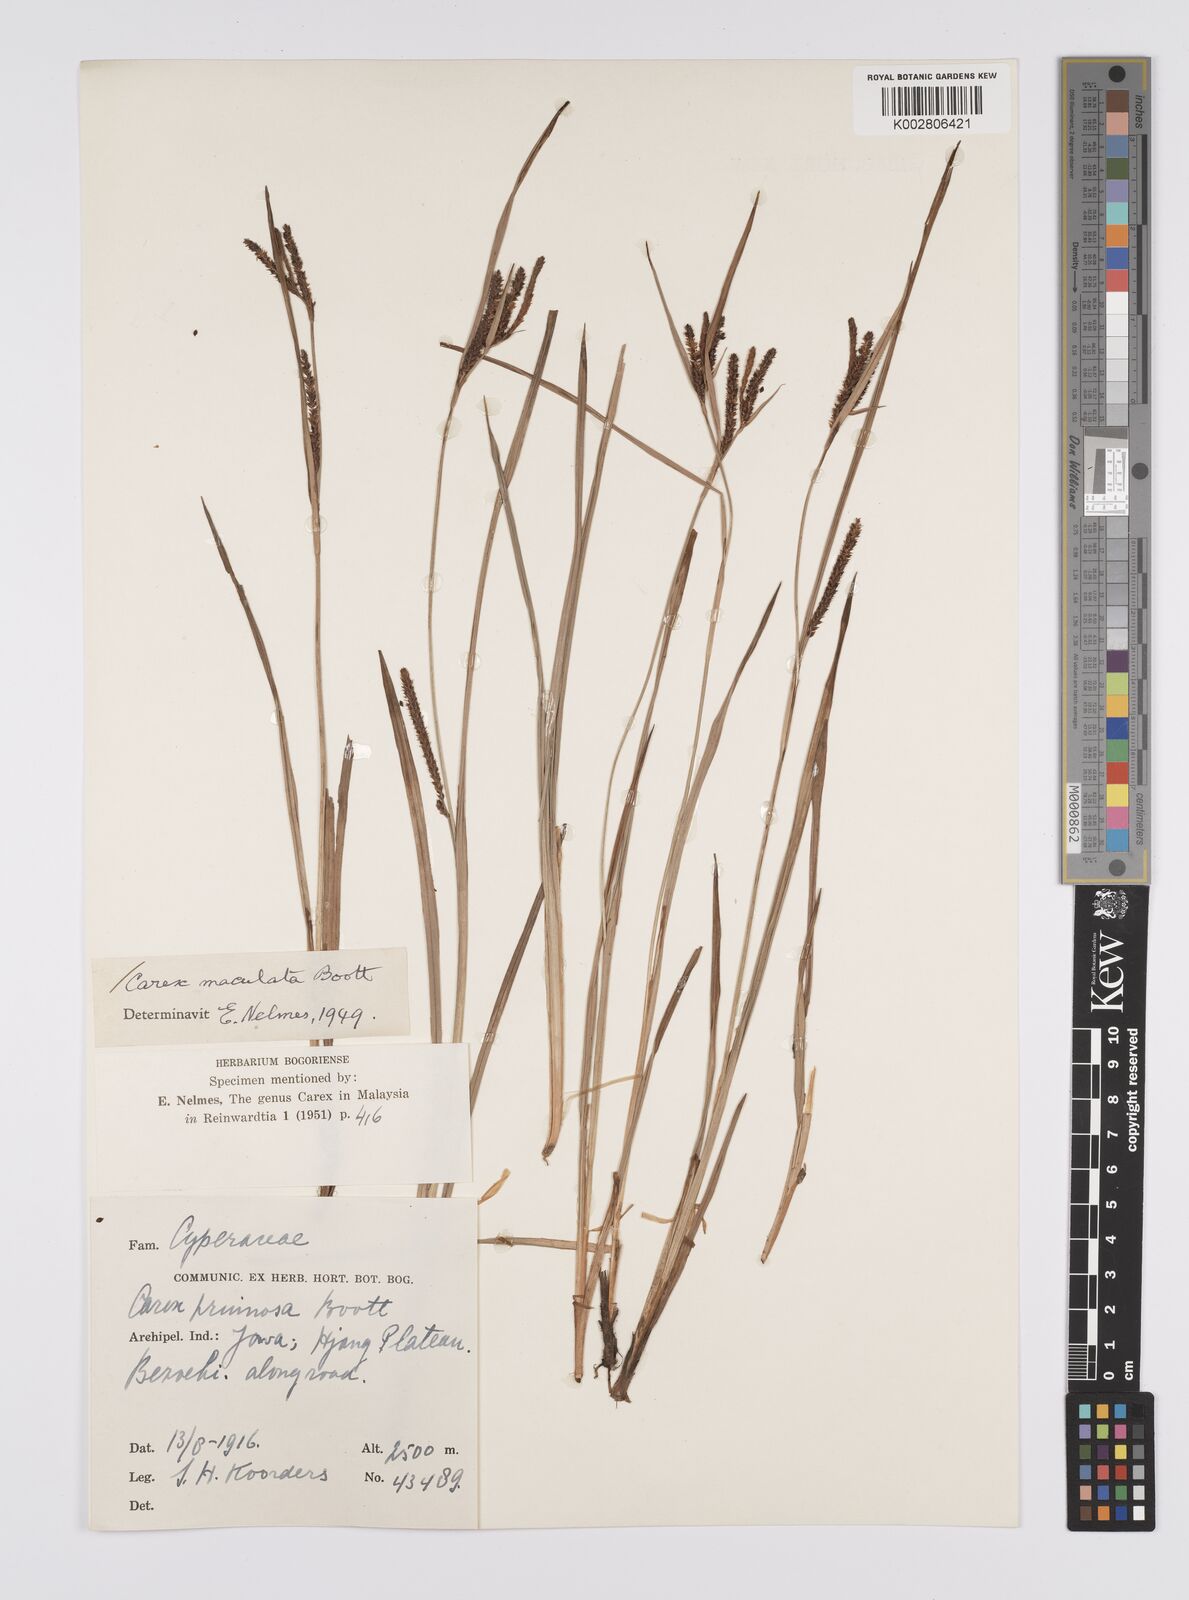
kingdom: Plantae
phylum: Tracheophyta
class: Liliopsida
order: Poales
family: Cyperaceae
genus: Carex
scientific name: Carex maculata
